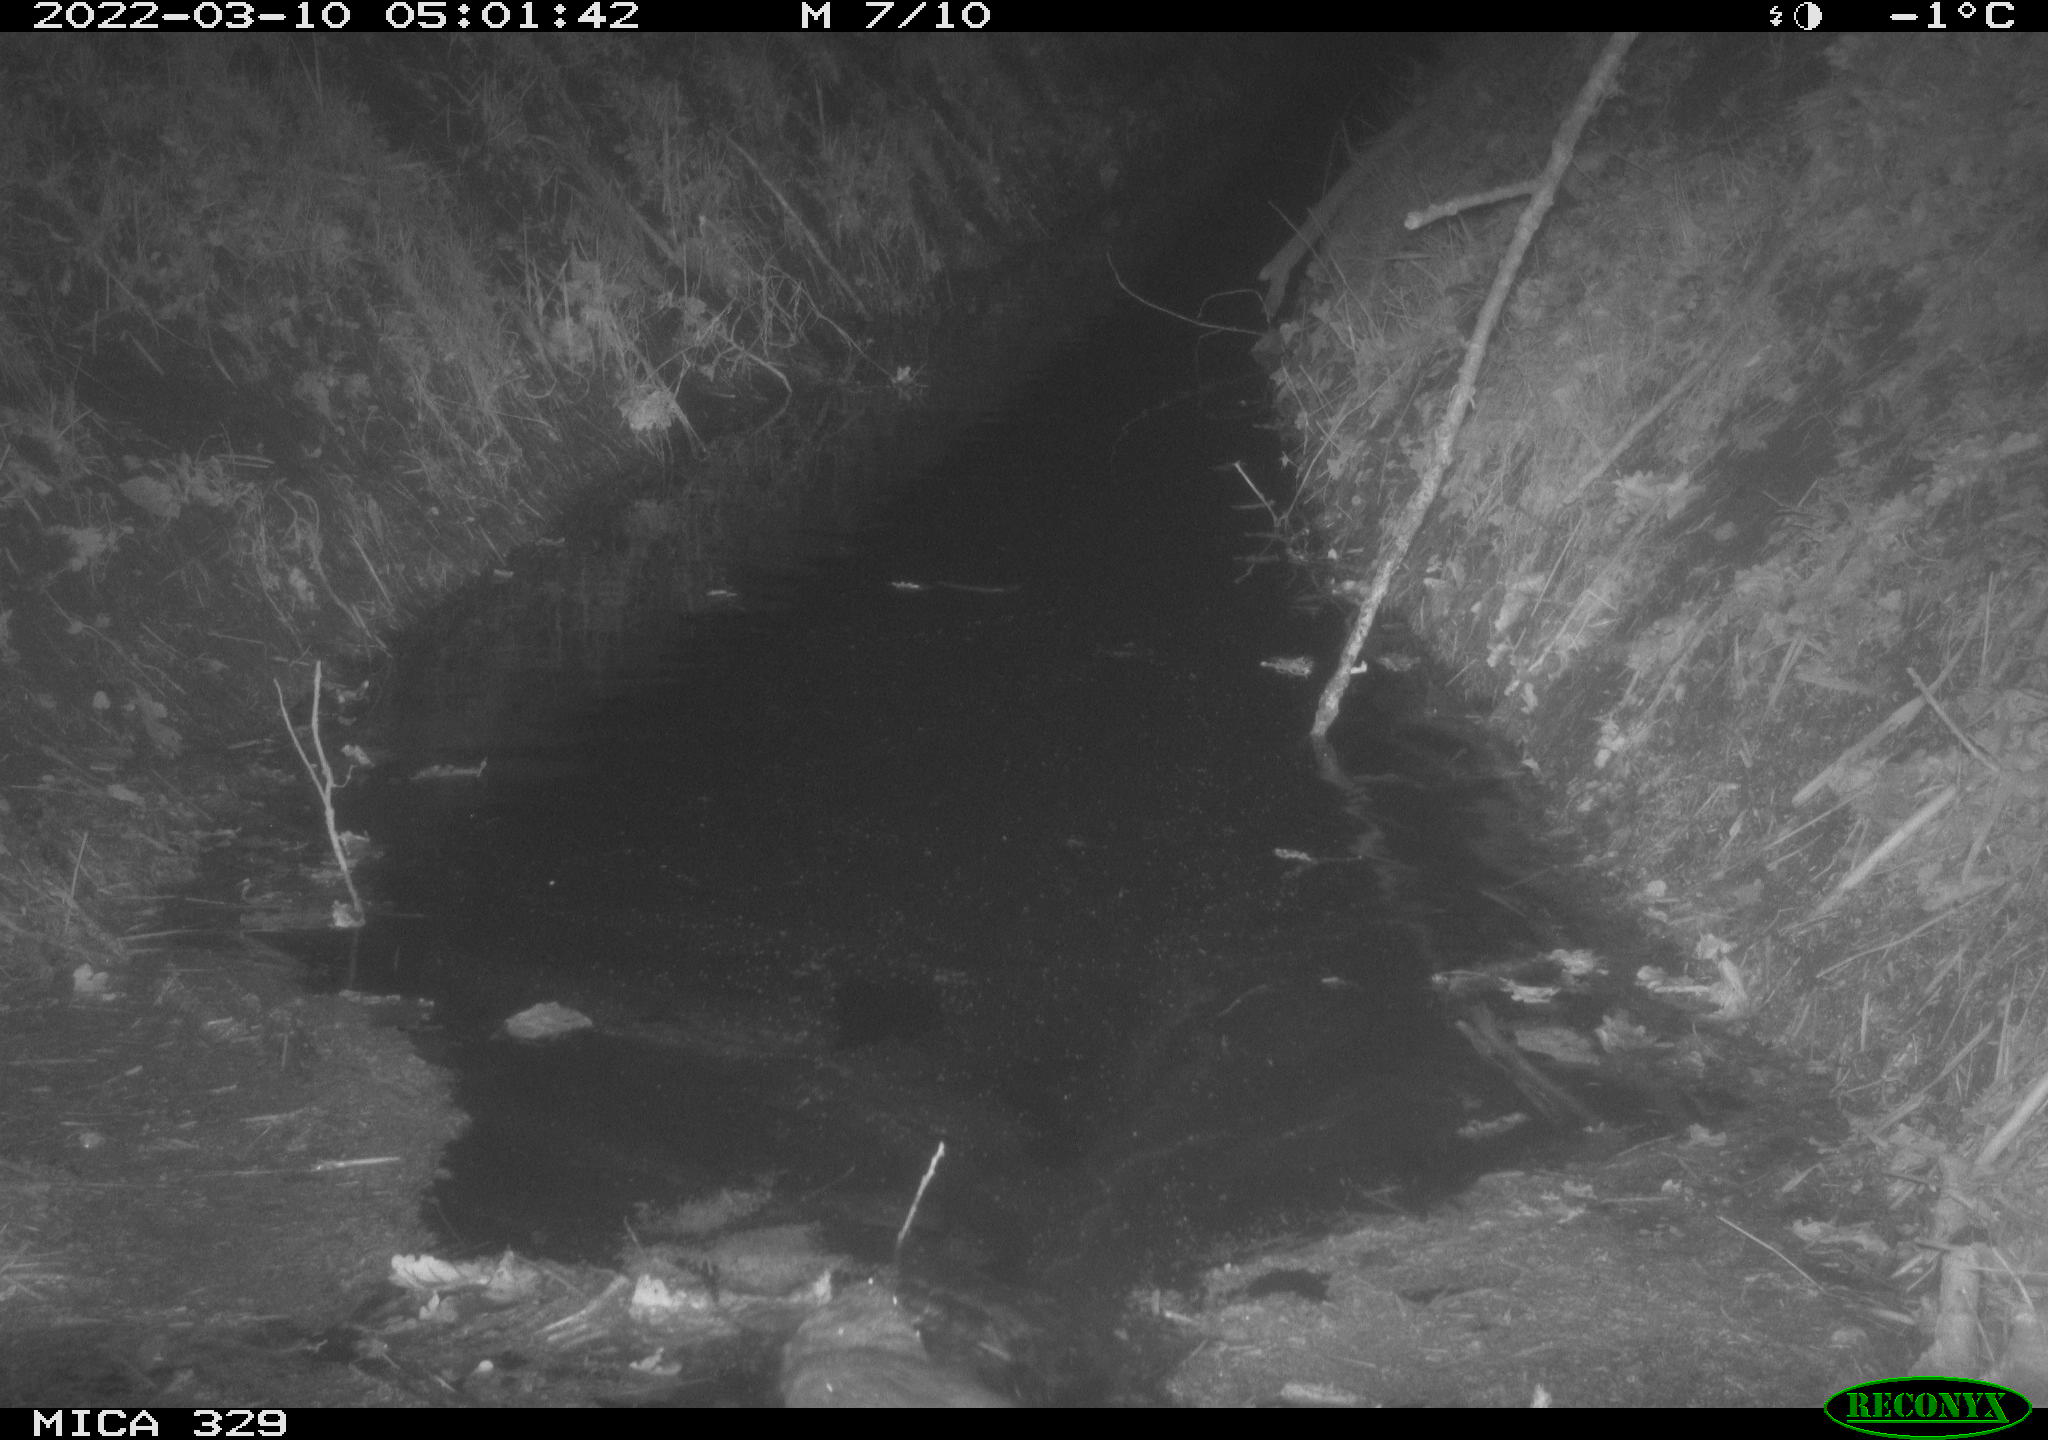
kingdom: Animalia
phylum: Chordata
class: Mammalia
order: Rodentia
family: Cricetidae
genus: Ondatra
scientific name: Ondatra zibethicus
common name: Muskrat
